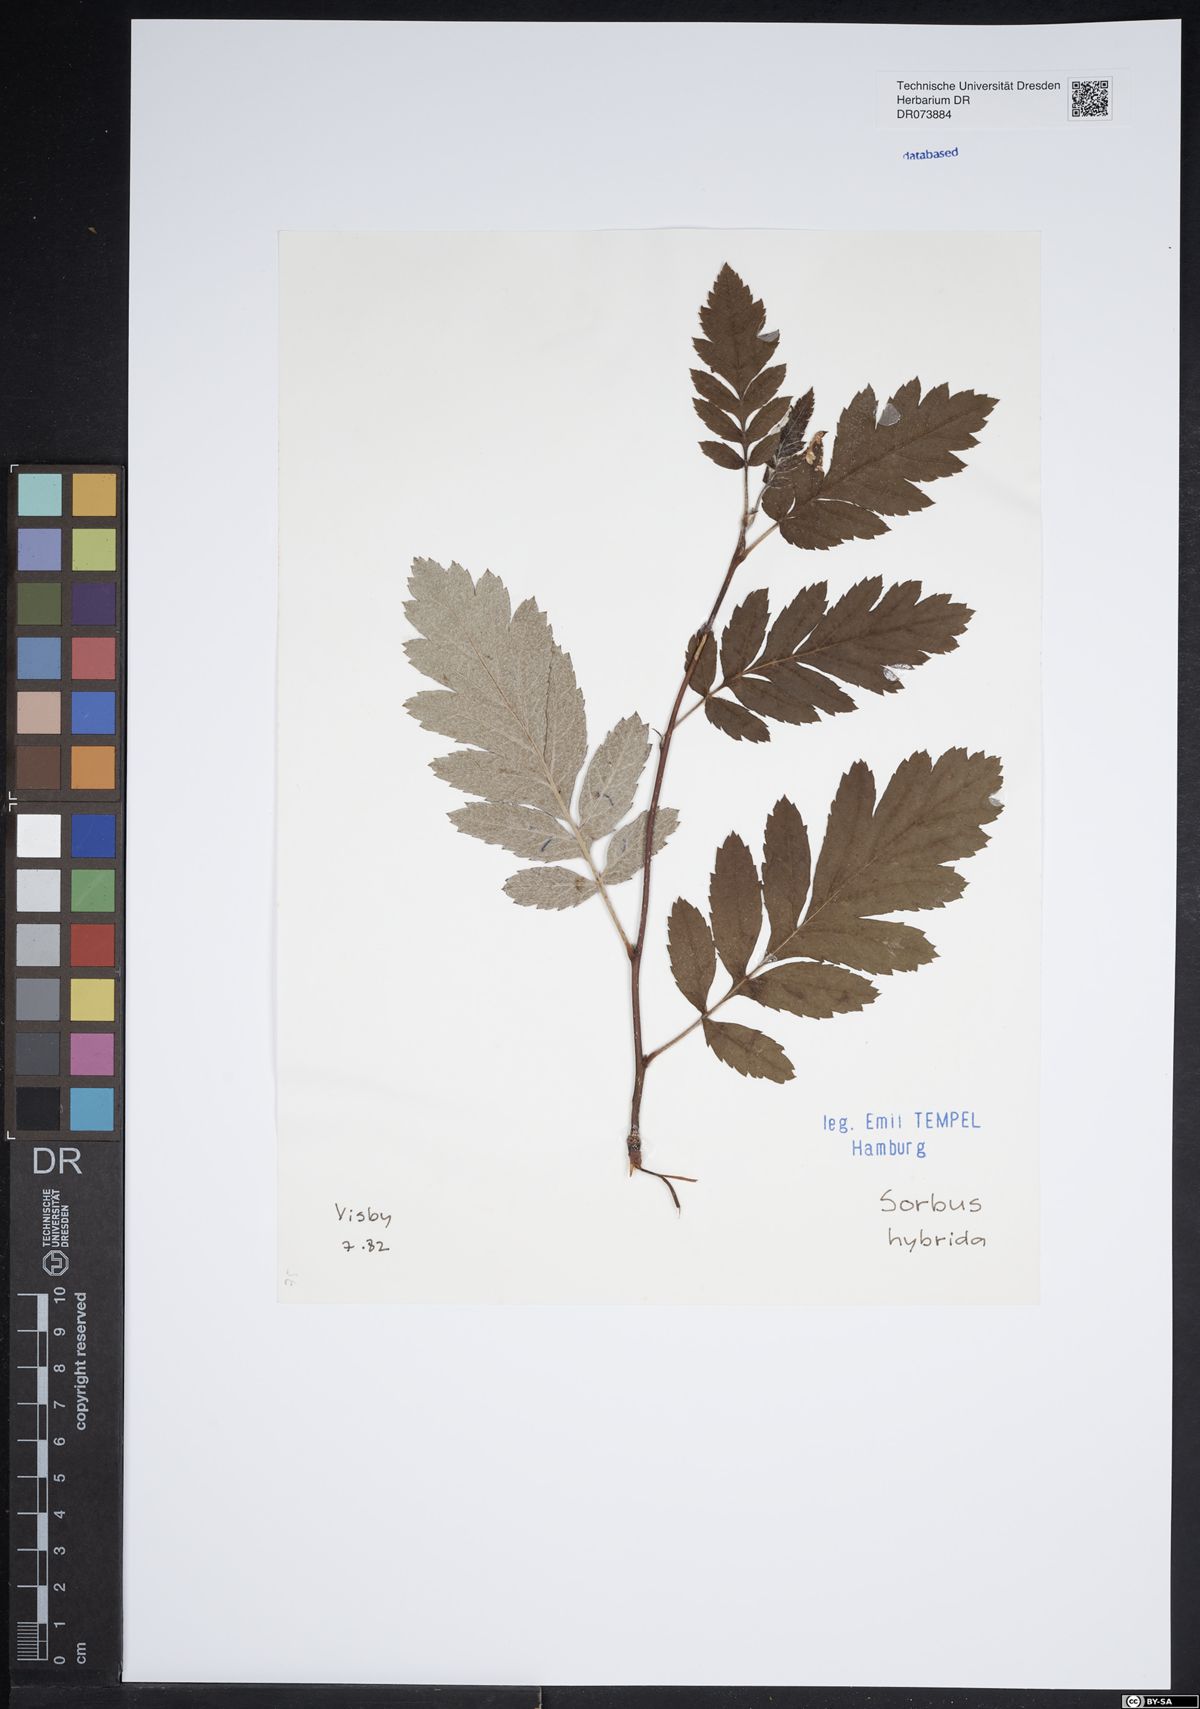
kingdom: Plantae
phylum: Tracheophyta
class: Magnoliopsida
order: Rosales
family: Rosaceae
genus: Hedlundia
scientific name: Hedlundia hybrida
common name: Swedish service-tree
